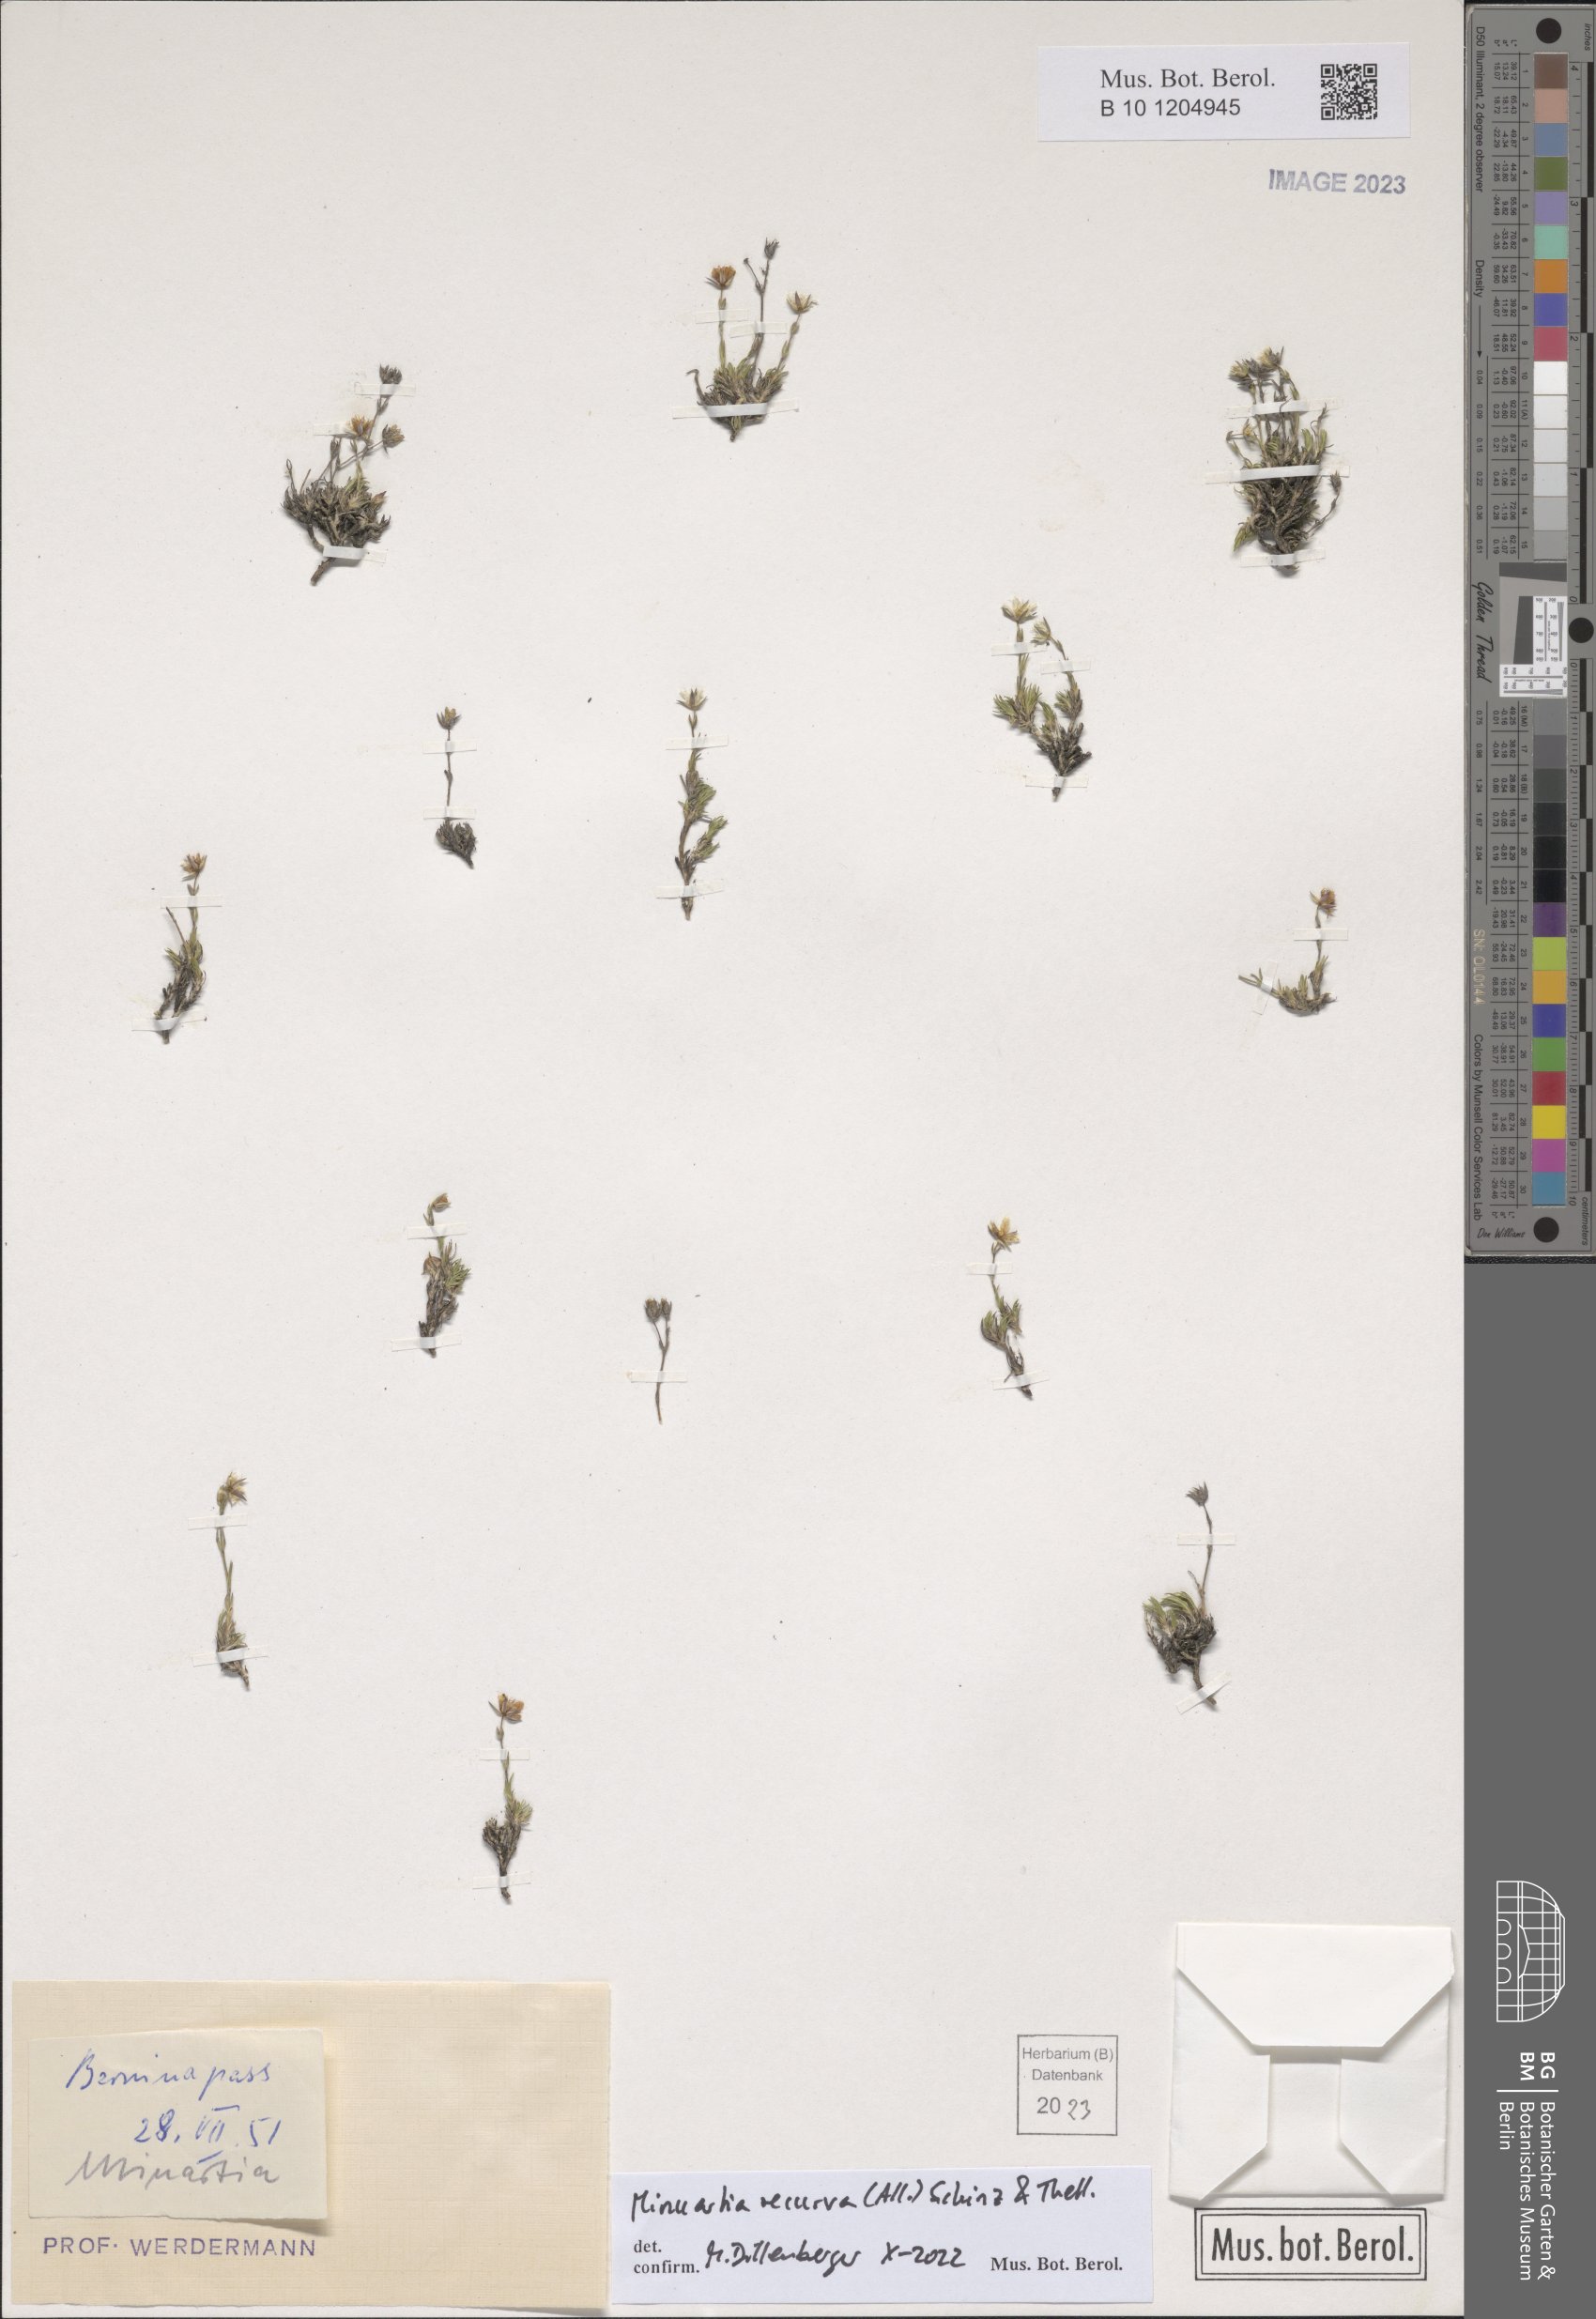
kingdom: Plantae
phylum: Tracheophyta
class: Magnoliopsida
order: Caryophyllales
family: Caryophyllaceae
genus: Minuartia
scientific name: Minuartia recurva
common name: Recurved sandwort
